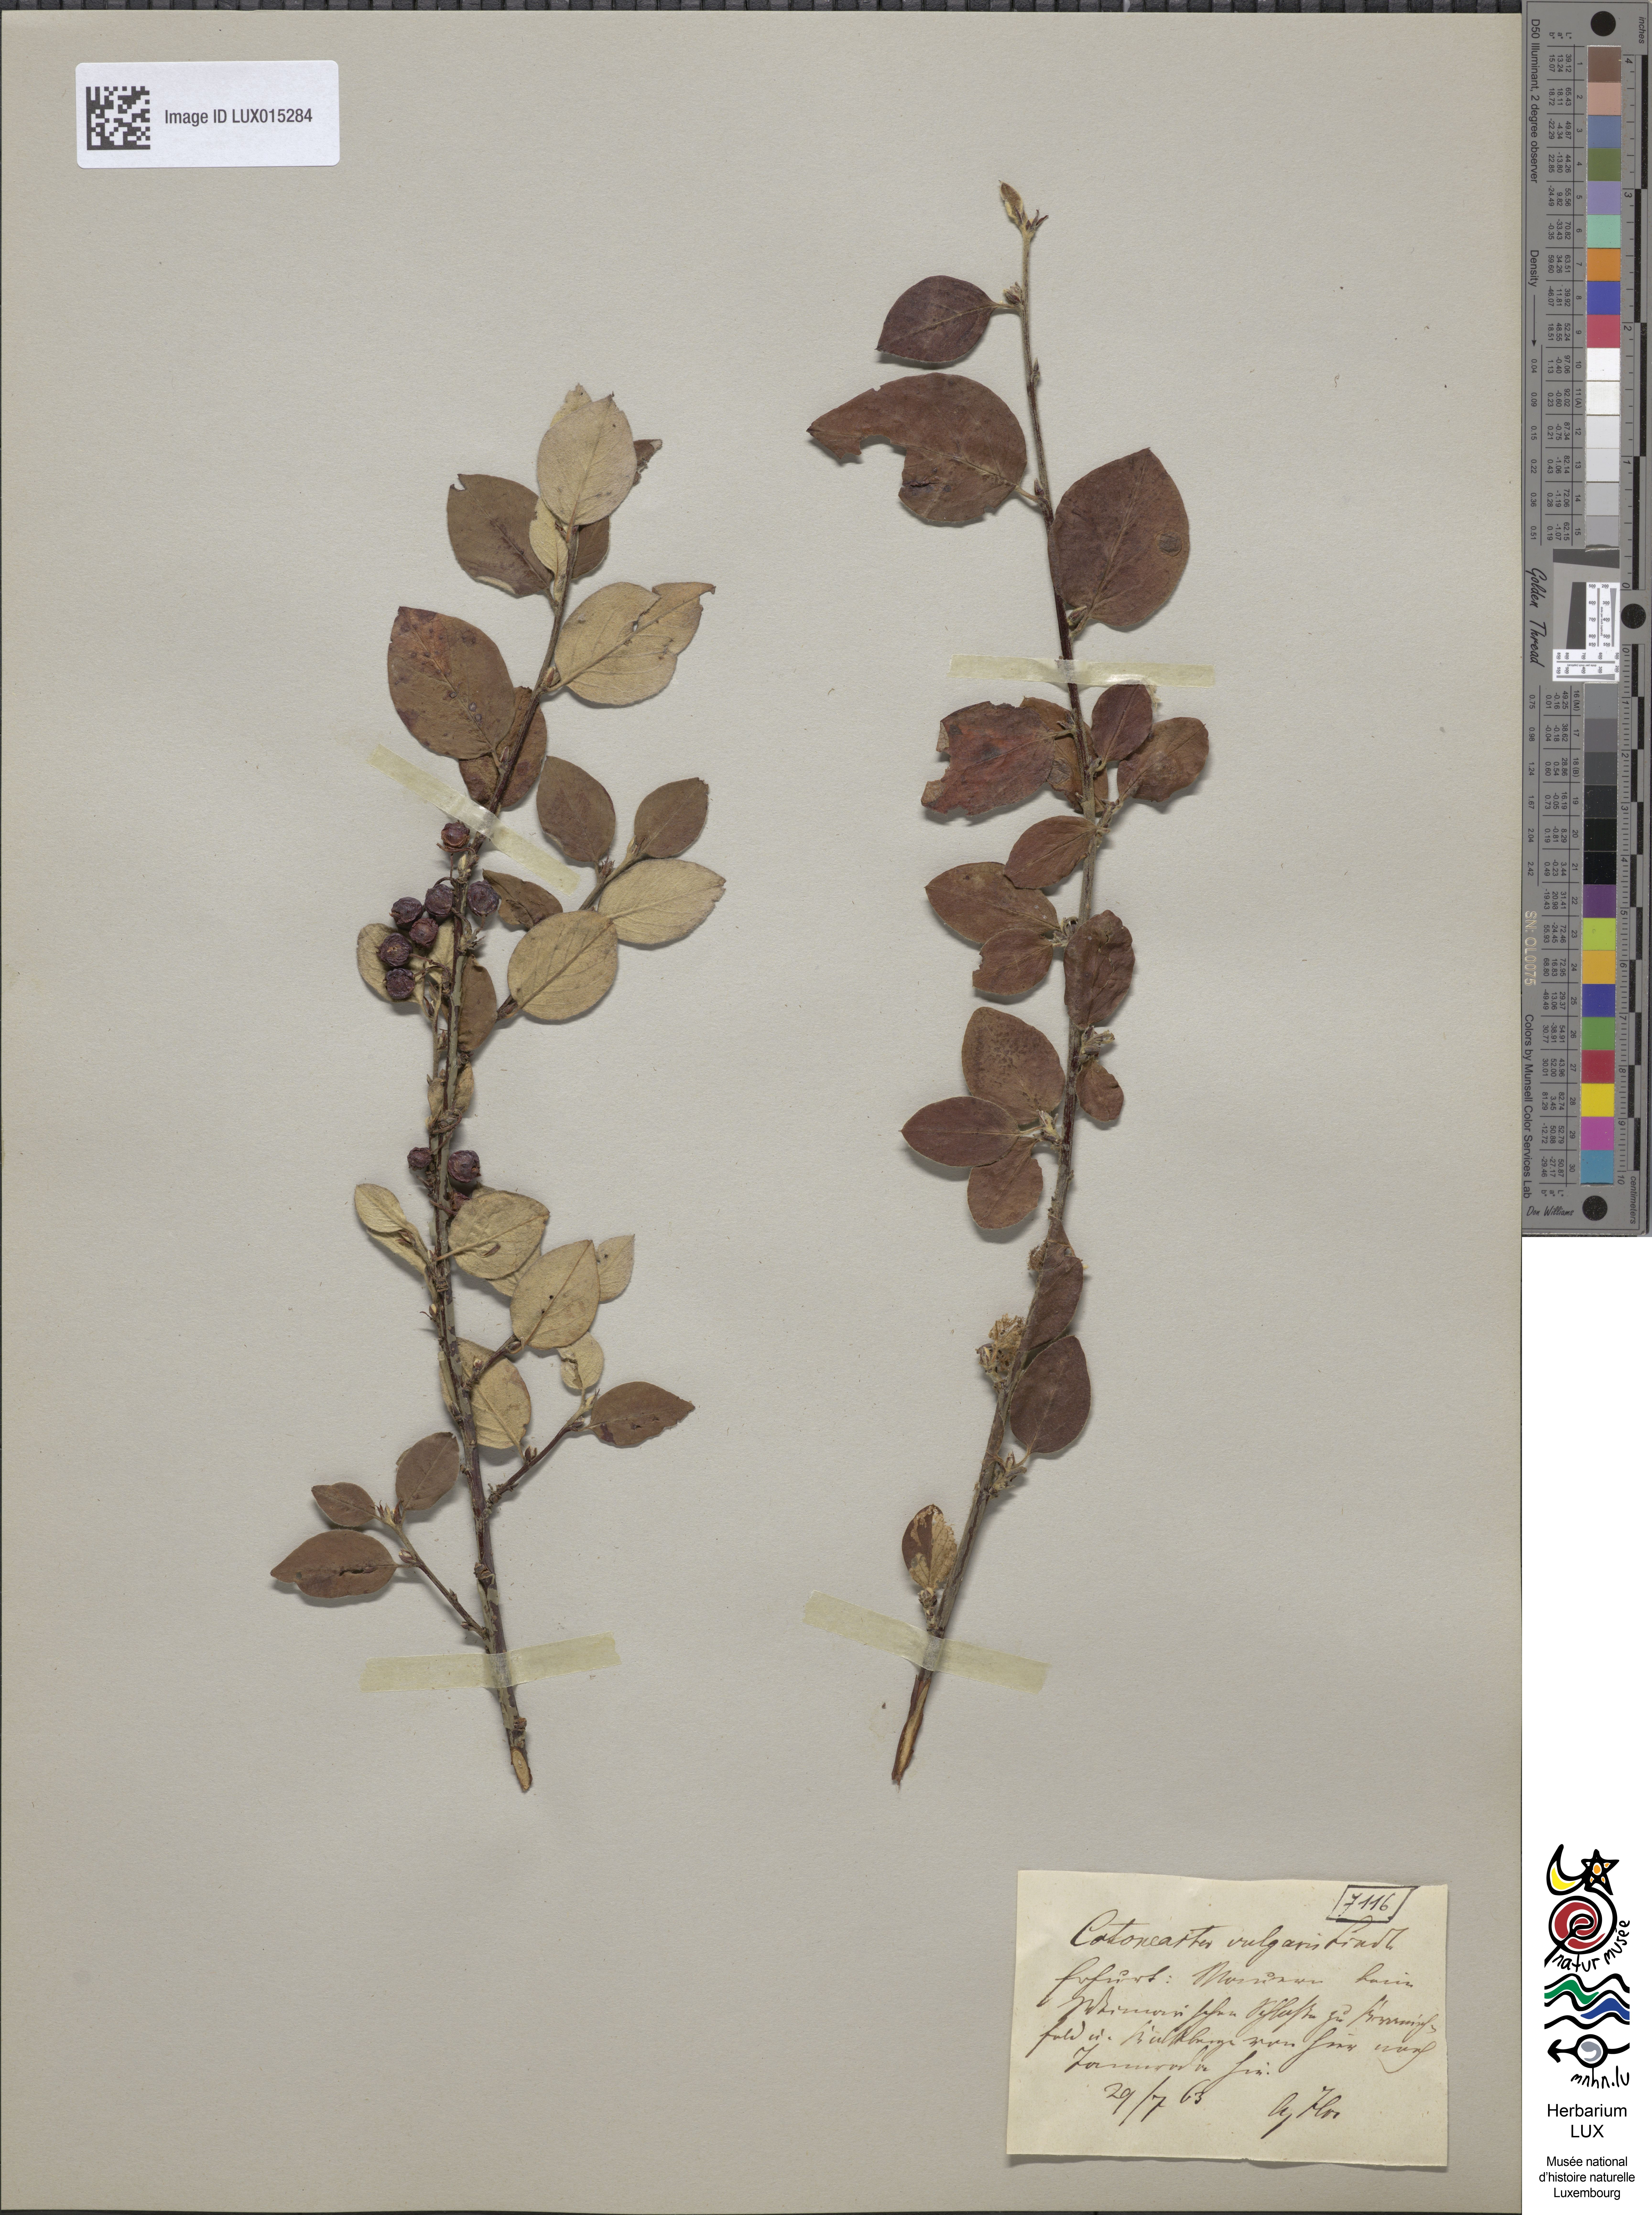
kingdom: Plantae
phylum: Tracheophyta
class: Magnoliopsida
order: Rosales
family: Rosaceae
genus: Cotoneaster
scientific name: Cotoneaster integerrimus
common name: Wild cotoneaster
